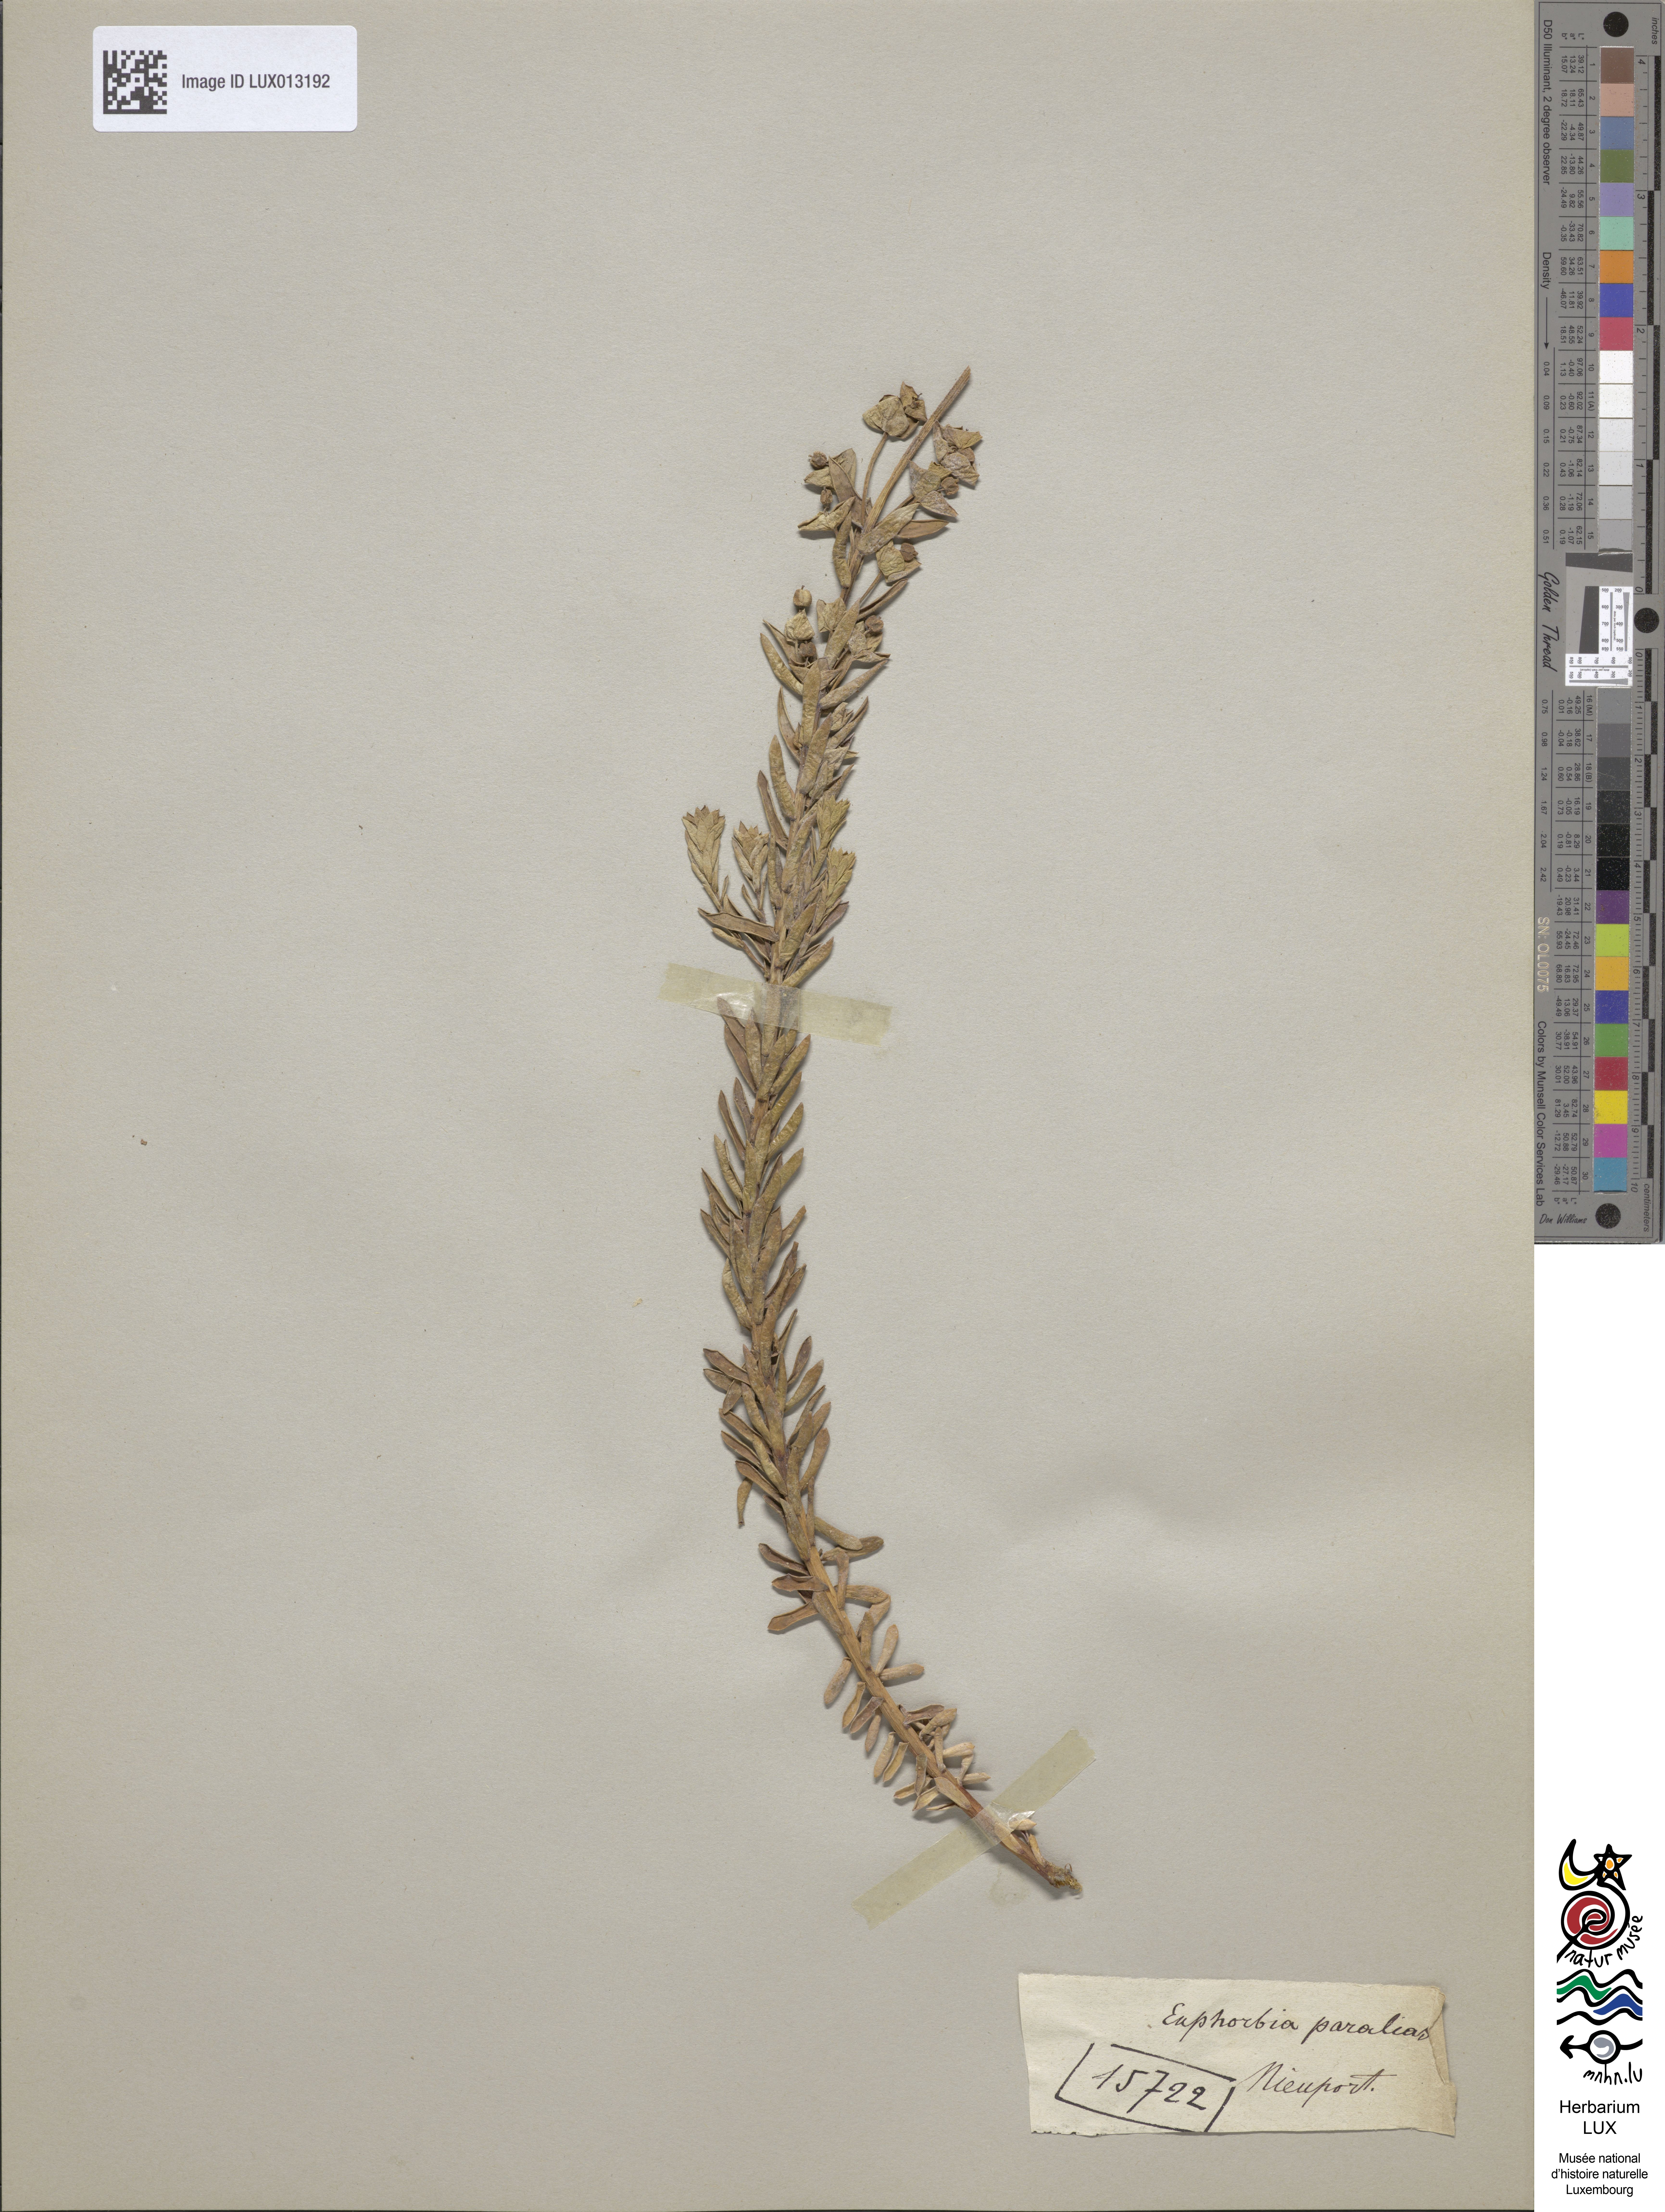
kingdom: Plantae
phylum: Tracheophyta
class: Magnoliopsida
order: Malpighiales
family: Euphorbiaceae
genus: Euphorbia
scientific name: Euphorbia paralias
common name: Sea spurge
